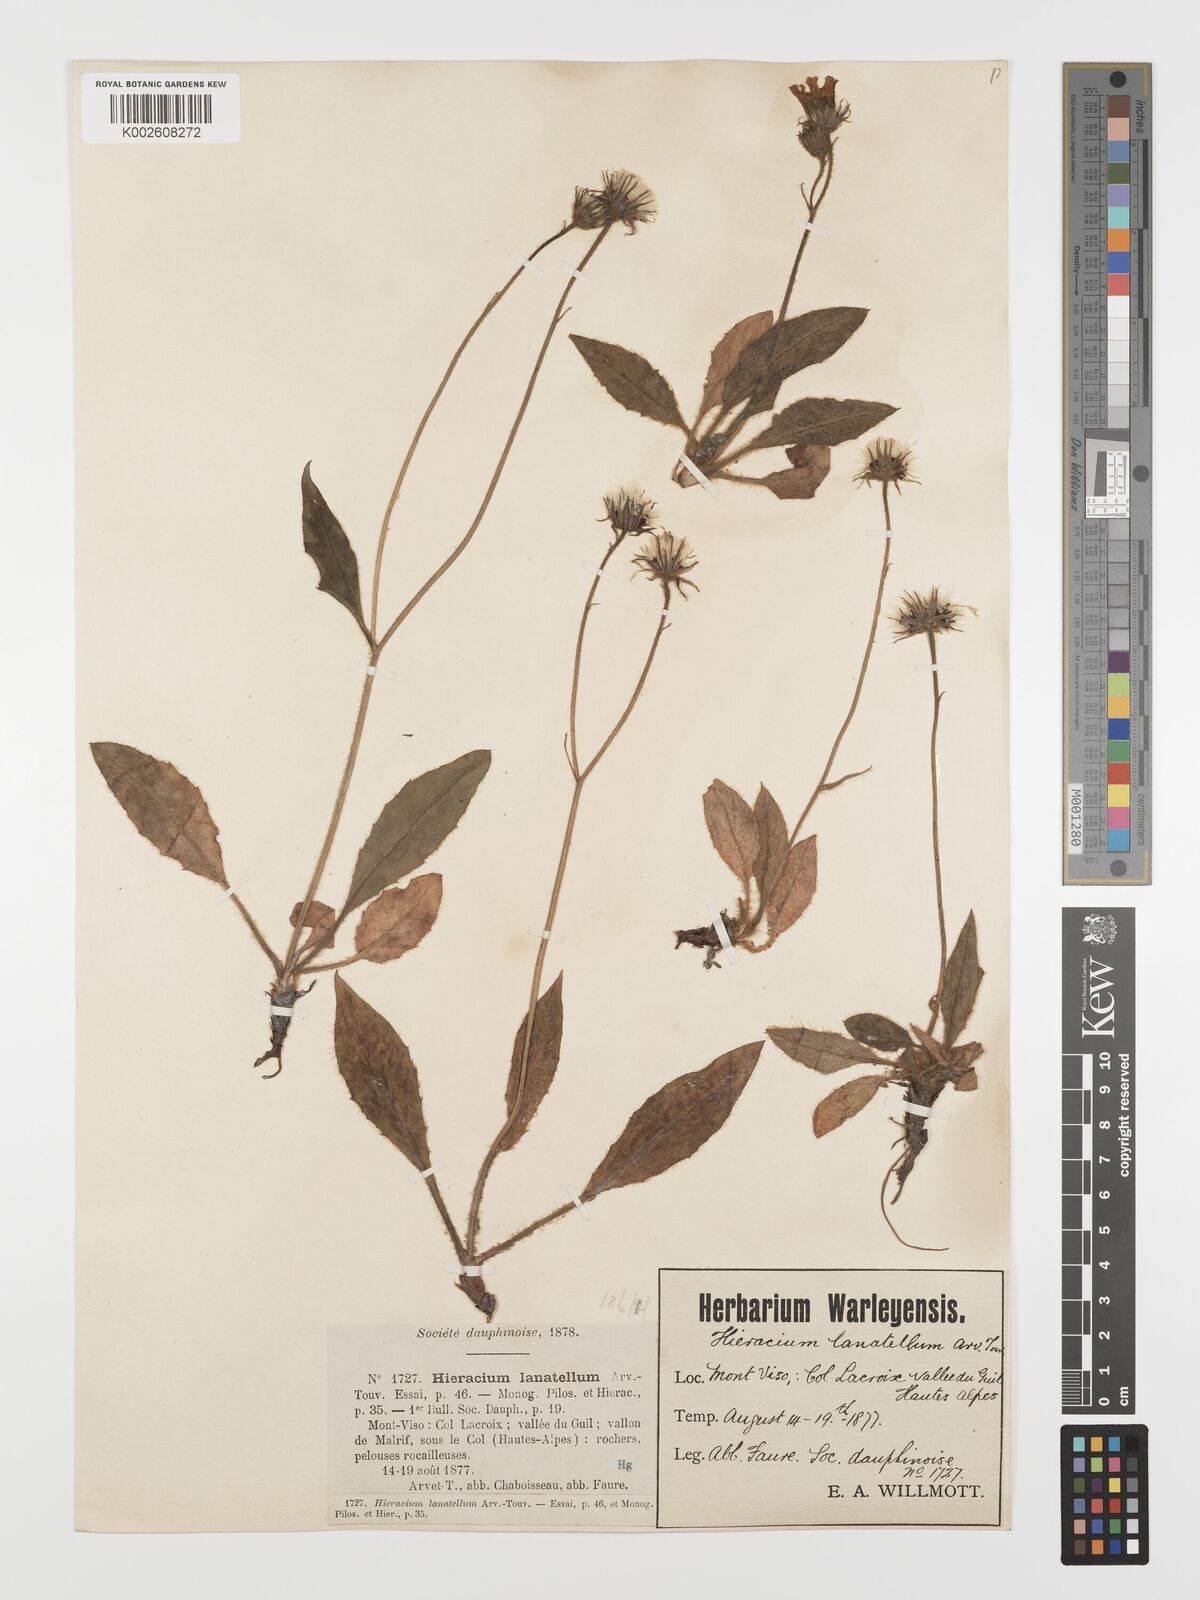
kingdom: Plantae
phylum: Tracheophyta
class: Magnoliopsida
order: Asterales
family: Asteraceae
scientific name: Asteraceae
